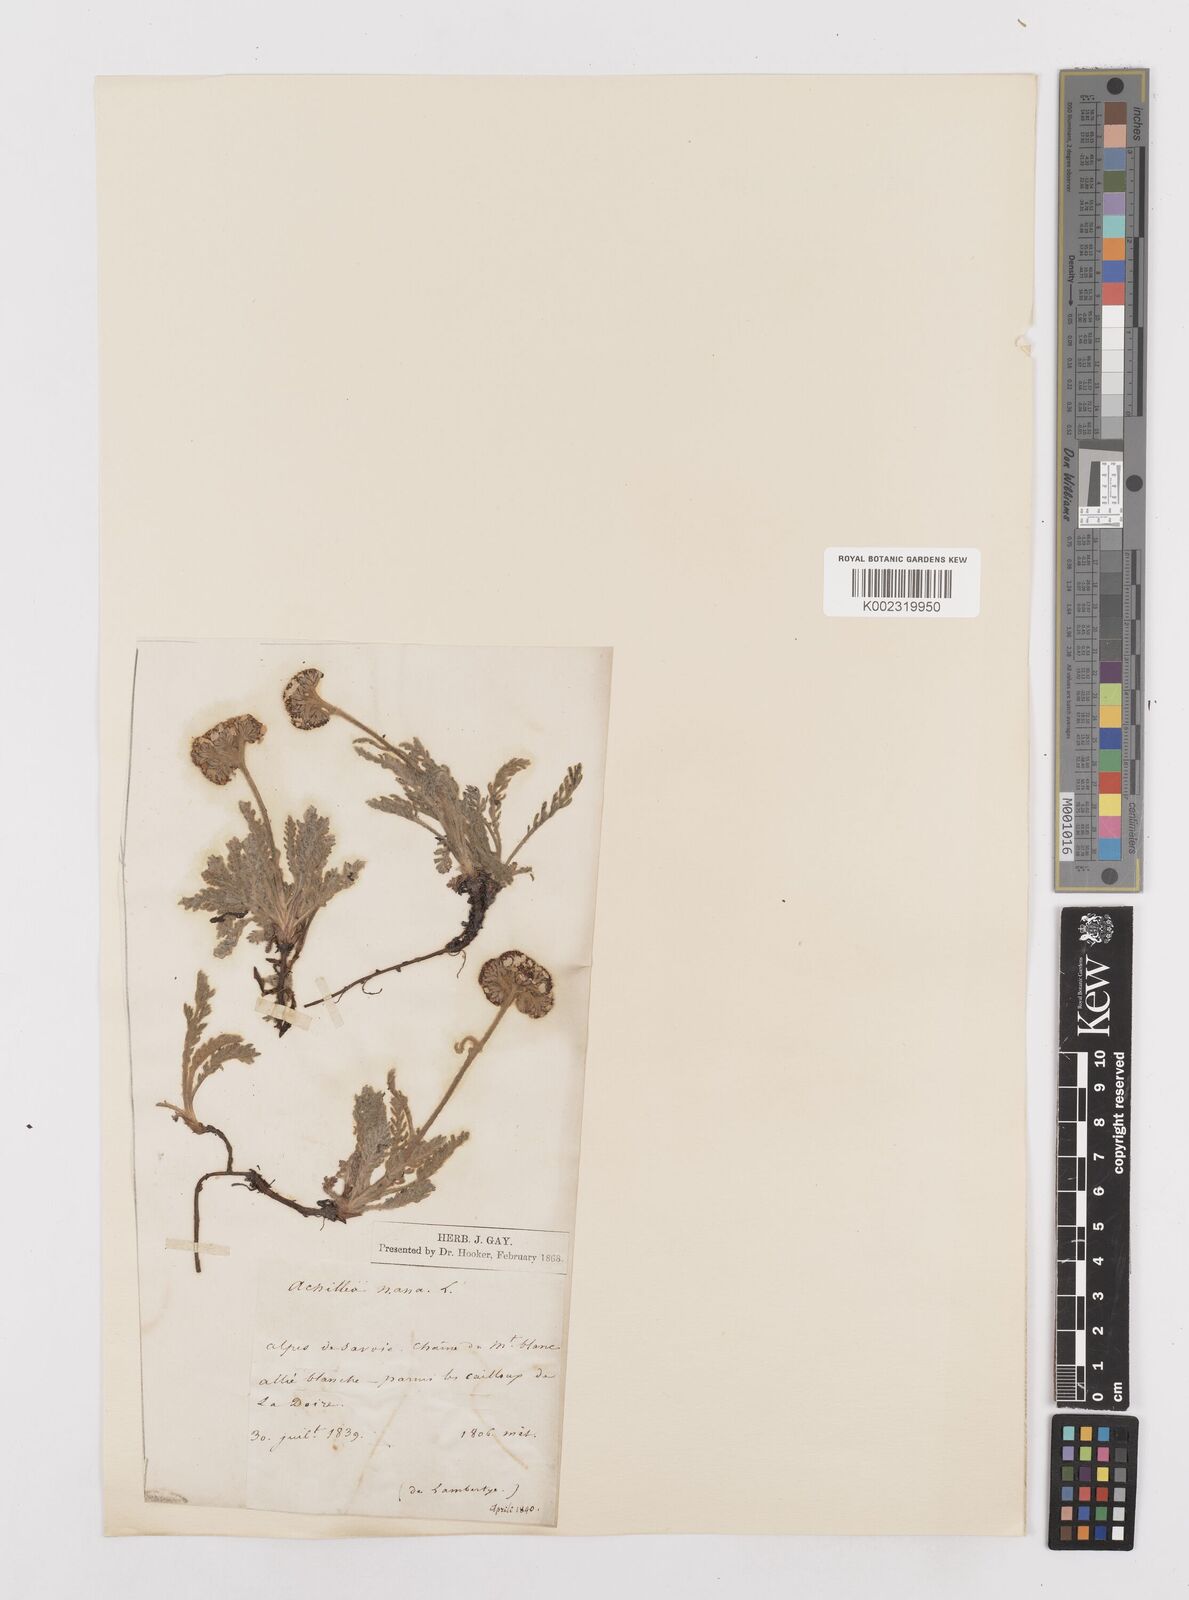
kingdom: Plantae
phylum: Tracheophyta
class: Magnoliopsida
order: Asterales
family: Asteraceae
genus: Achillea
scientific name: Achillea
